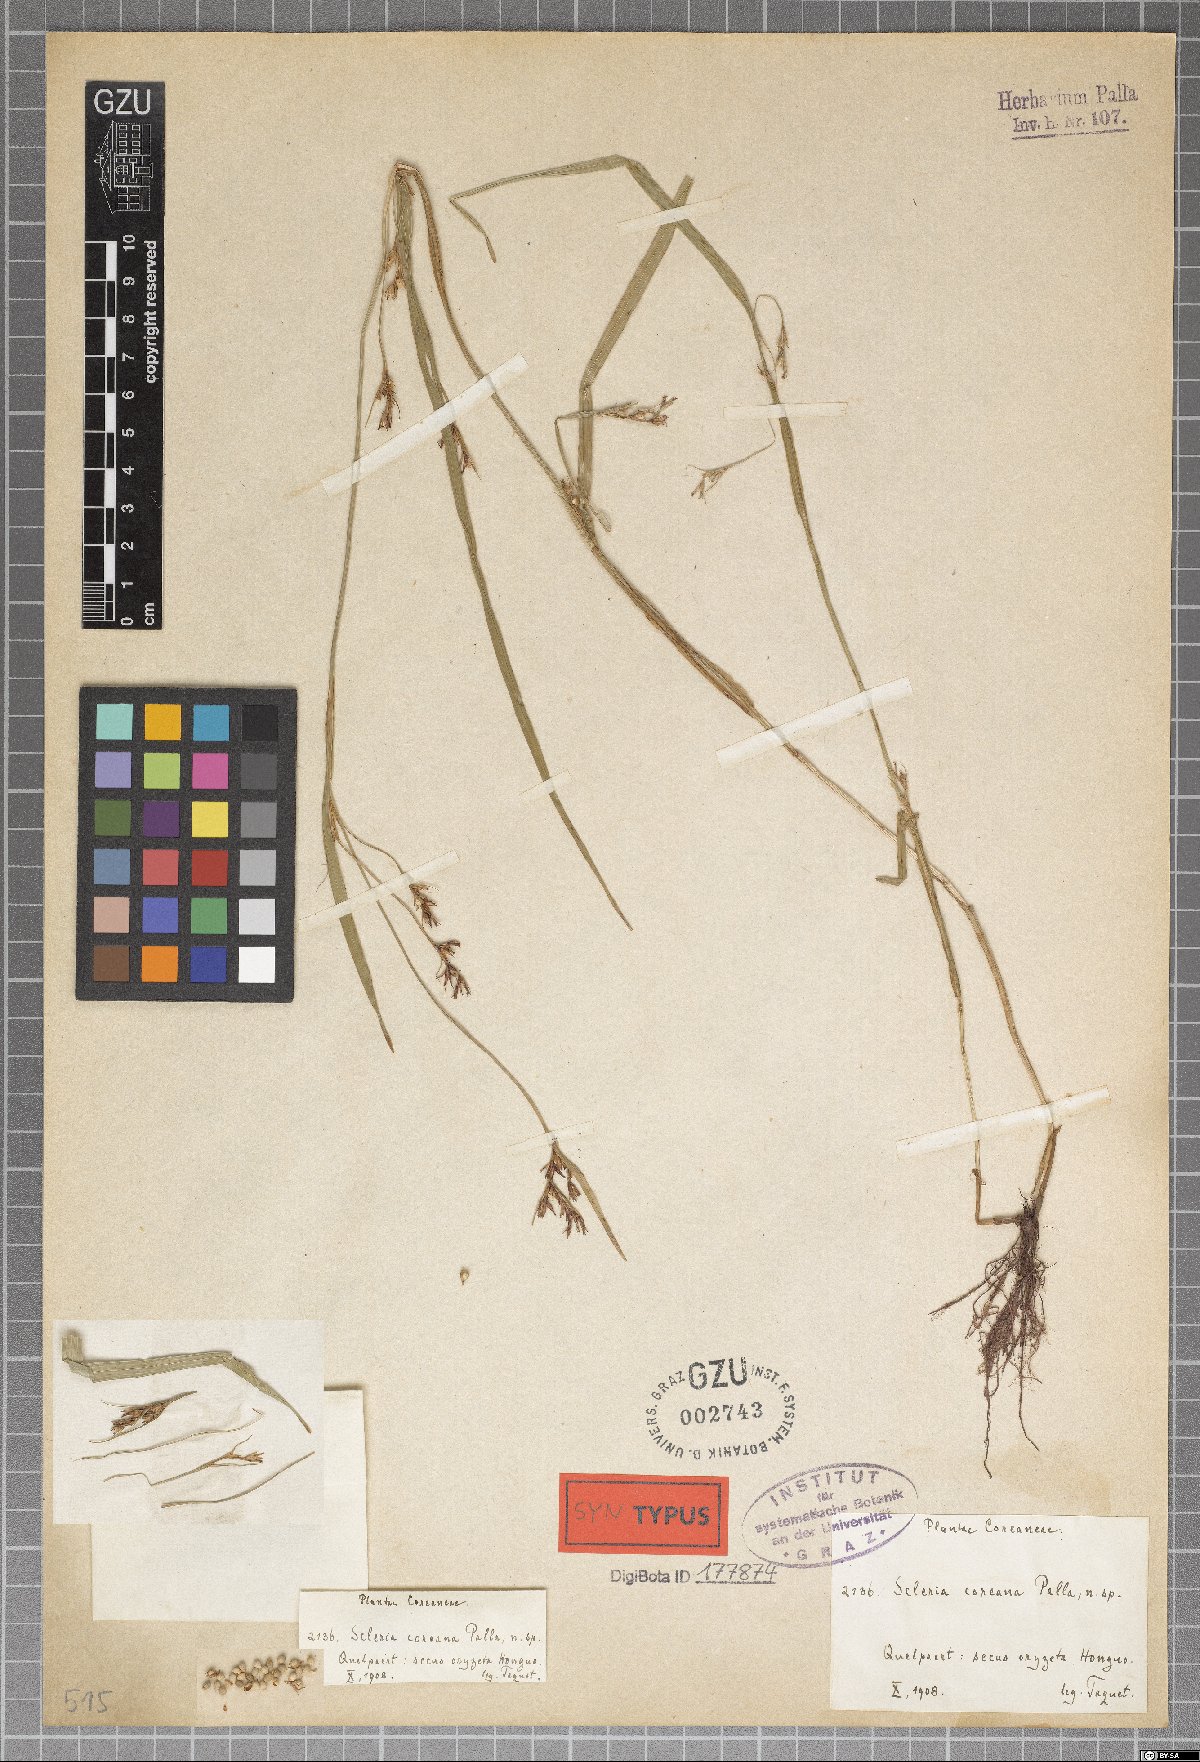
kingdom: Plantae
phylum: Tracheophyta
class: Liliopsida
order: Poales
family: Cyperaceae
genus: Scleria
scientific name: Scleria parvula
